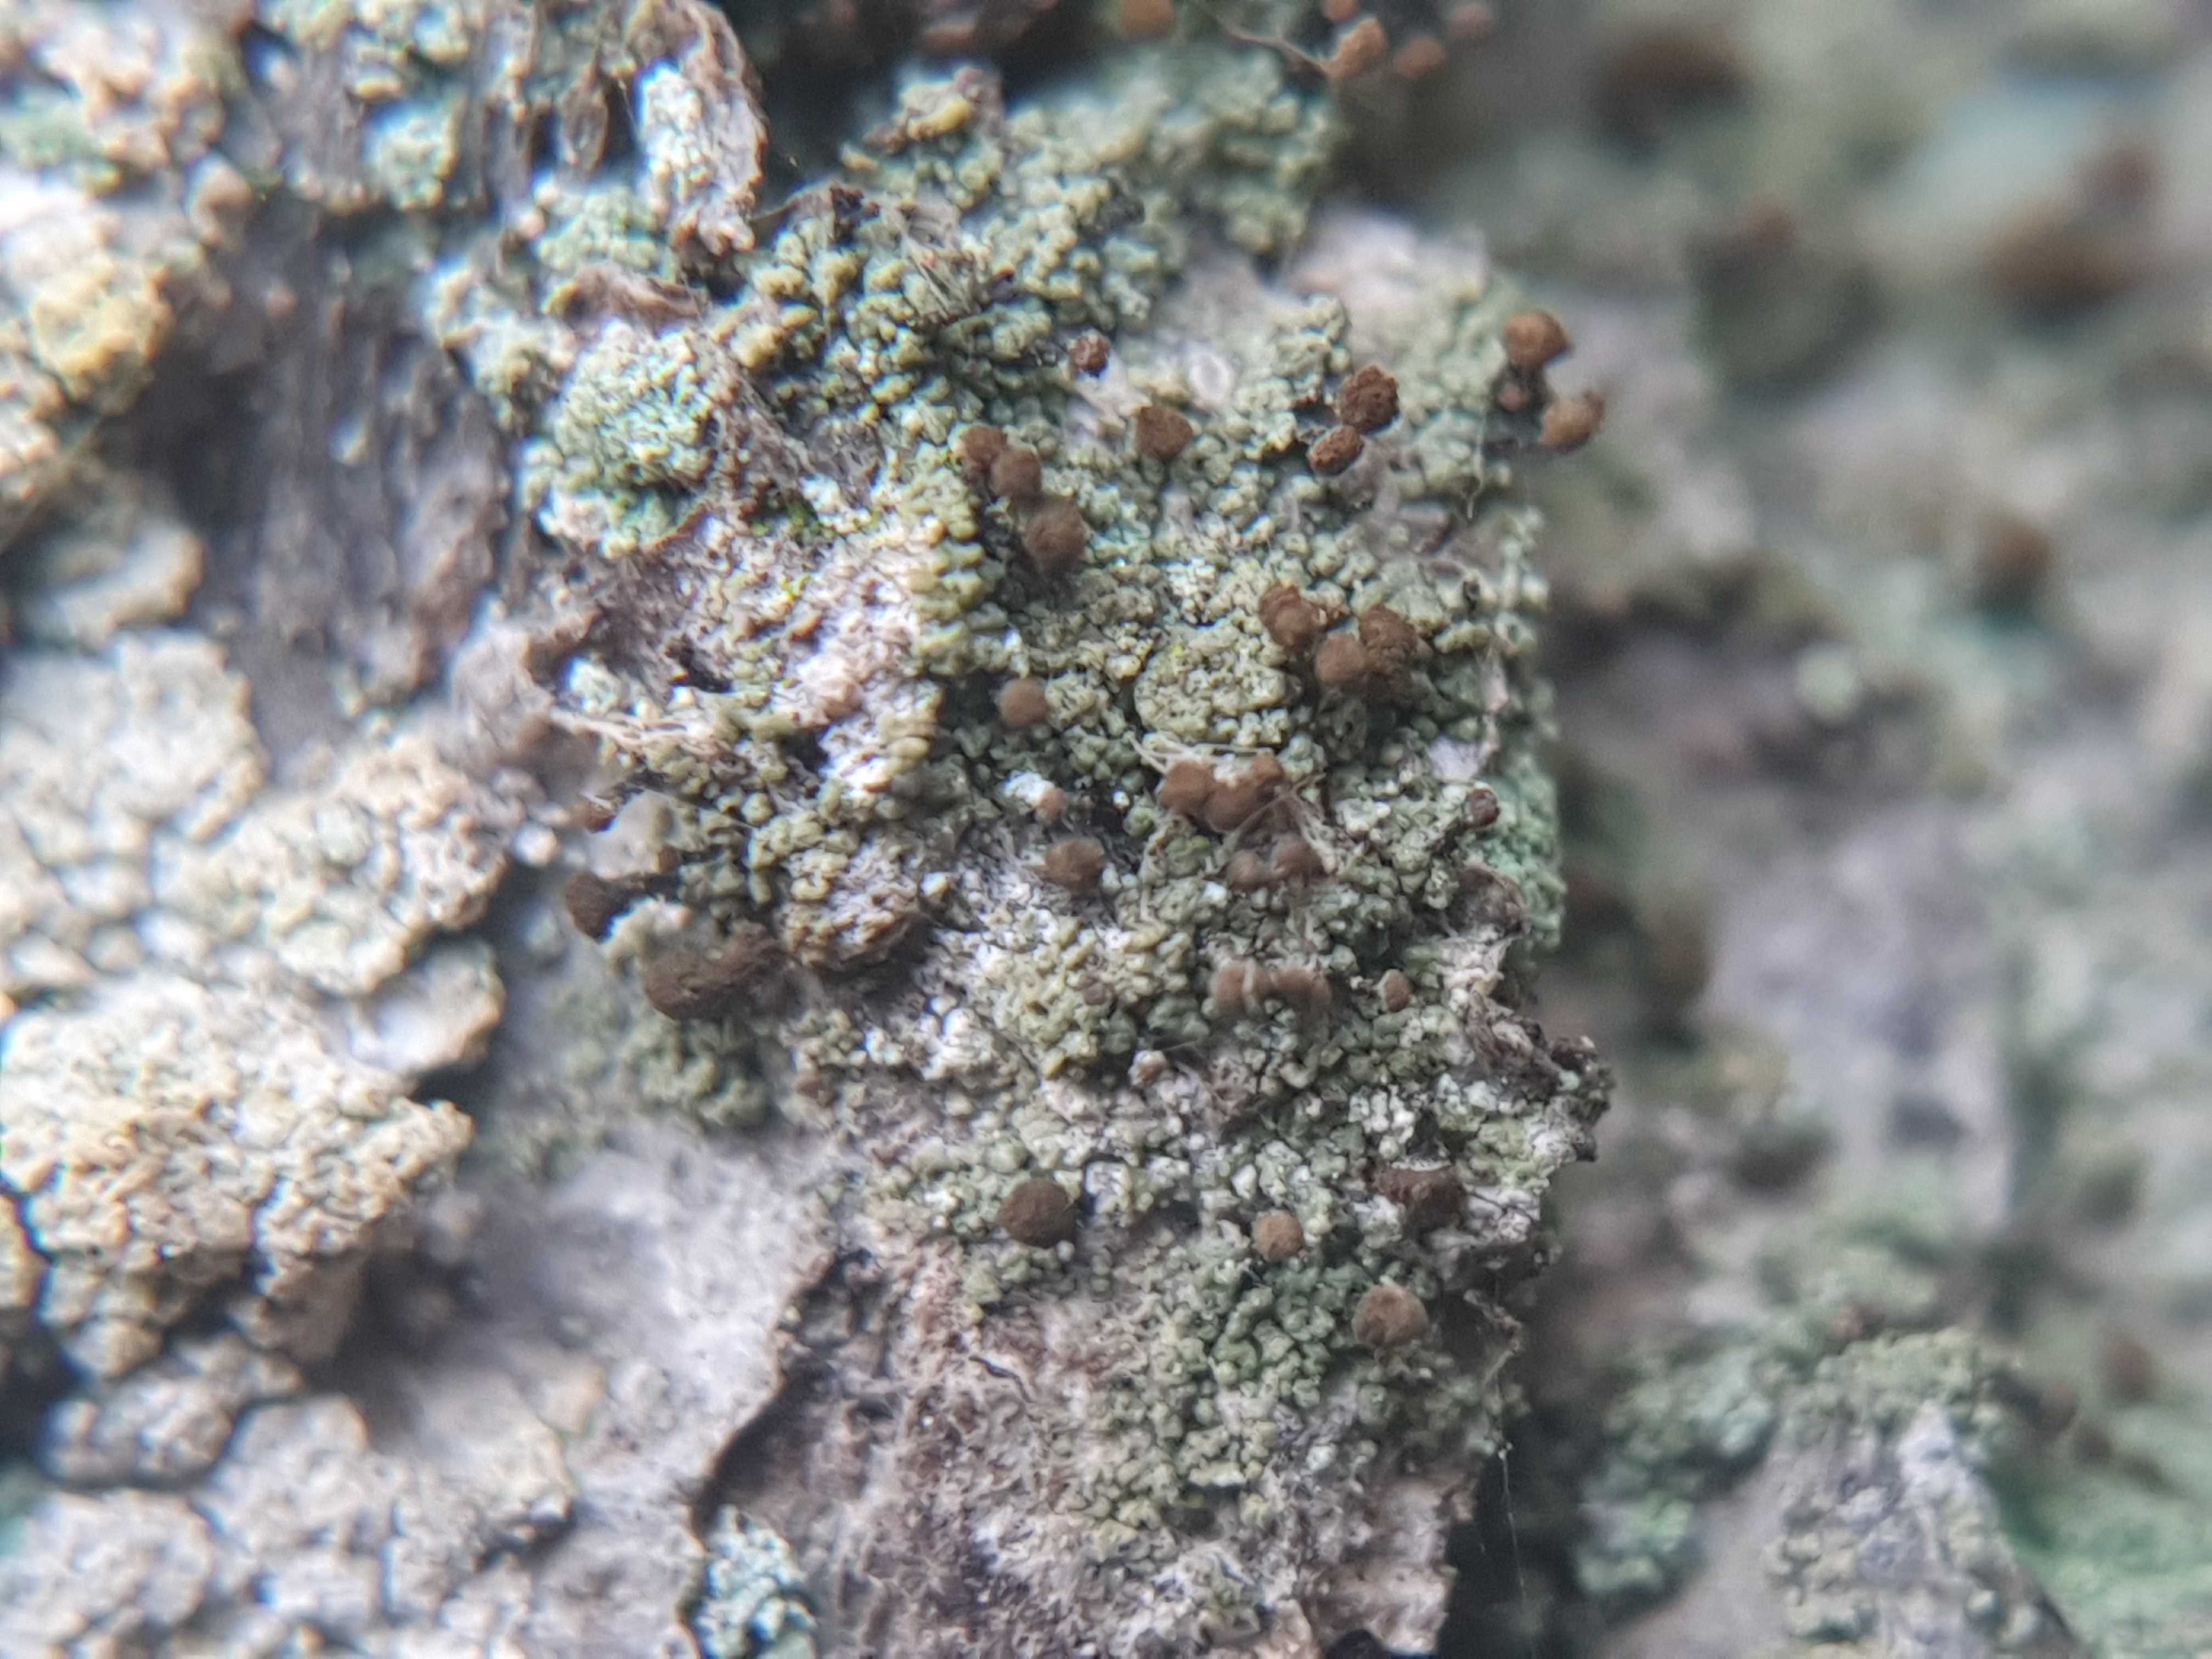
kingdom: Fungi
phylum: Ascomycota
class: Coniocybomycetes
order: Coniocybales
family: Coniocybaceae
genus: Chaenotheca
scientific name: Chaenotheca trichialis
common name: grå knappenålslav
